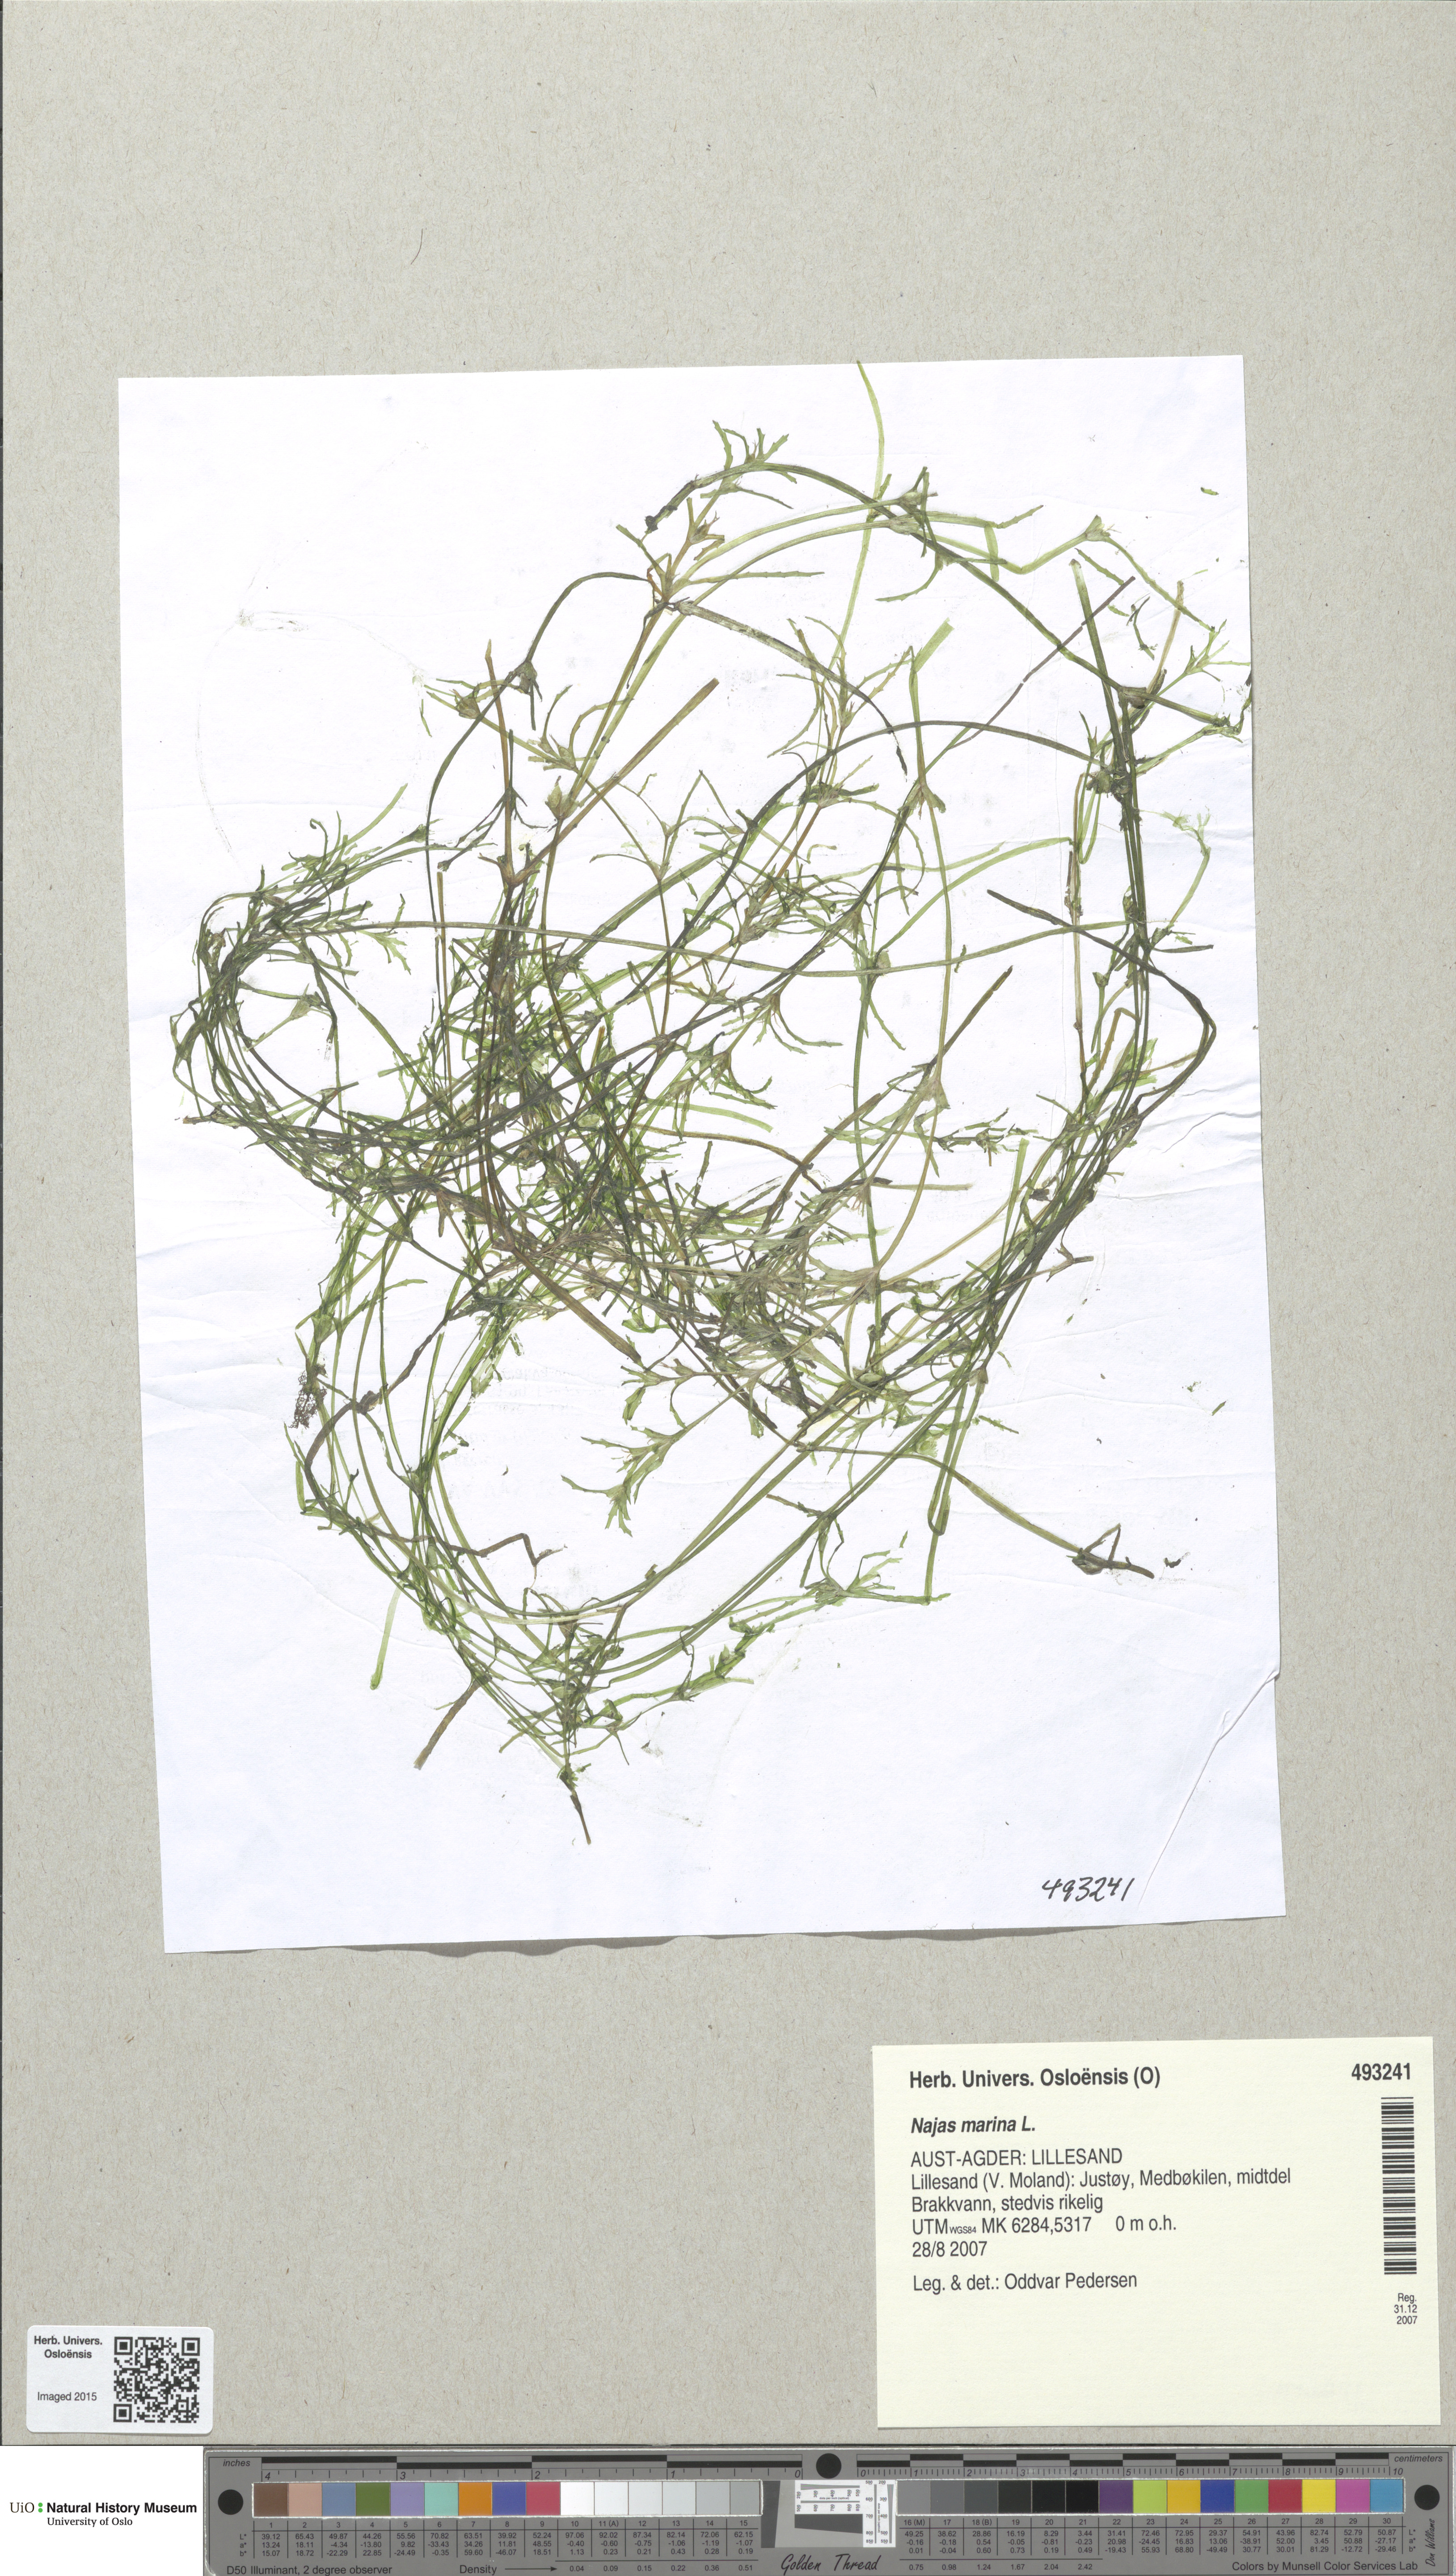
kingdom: Plantae
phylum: Tracheophyta
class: Liliopsida
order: Alismatales
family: Hydrocharitaceae
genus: Najas
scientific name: Najas marina
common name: Holly-leaved naiad
